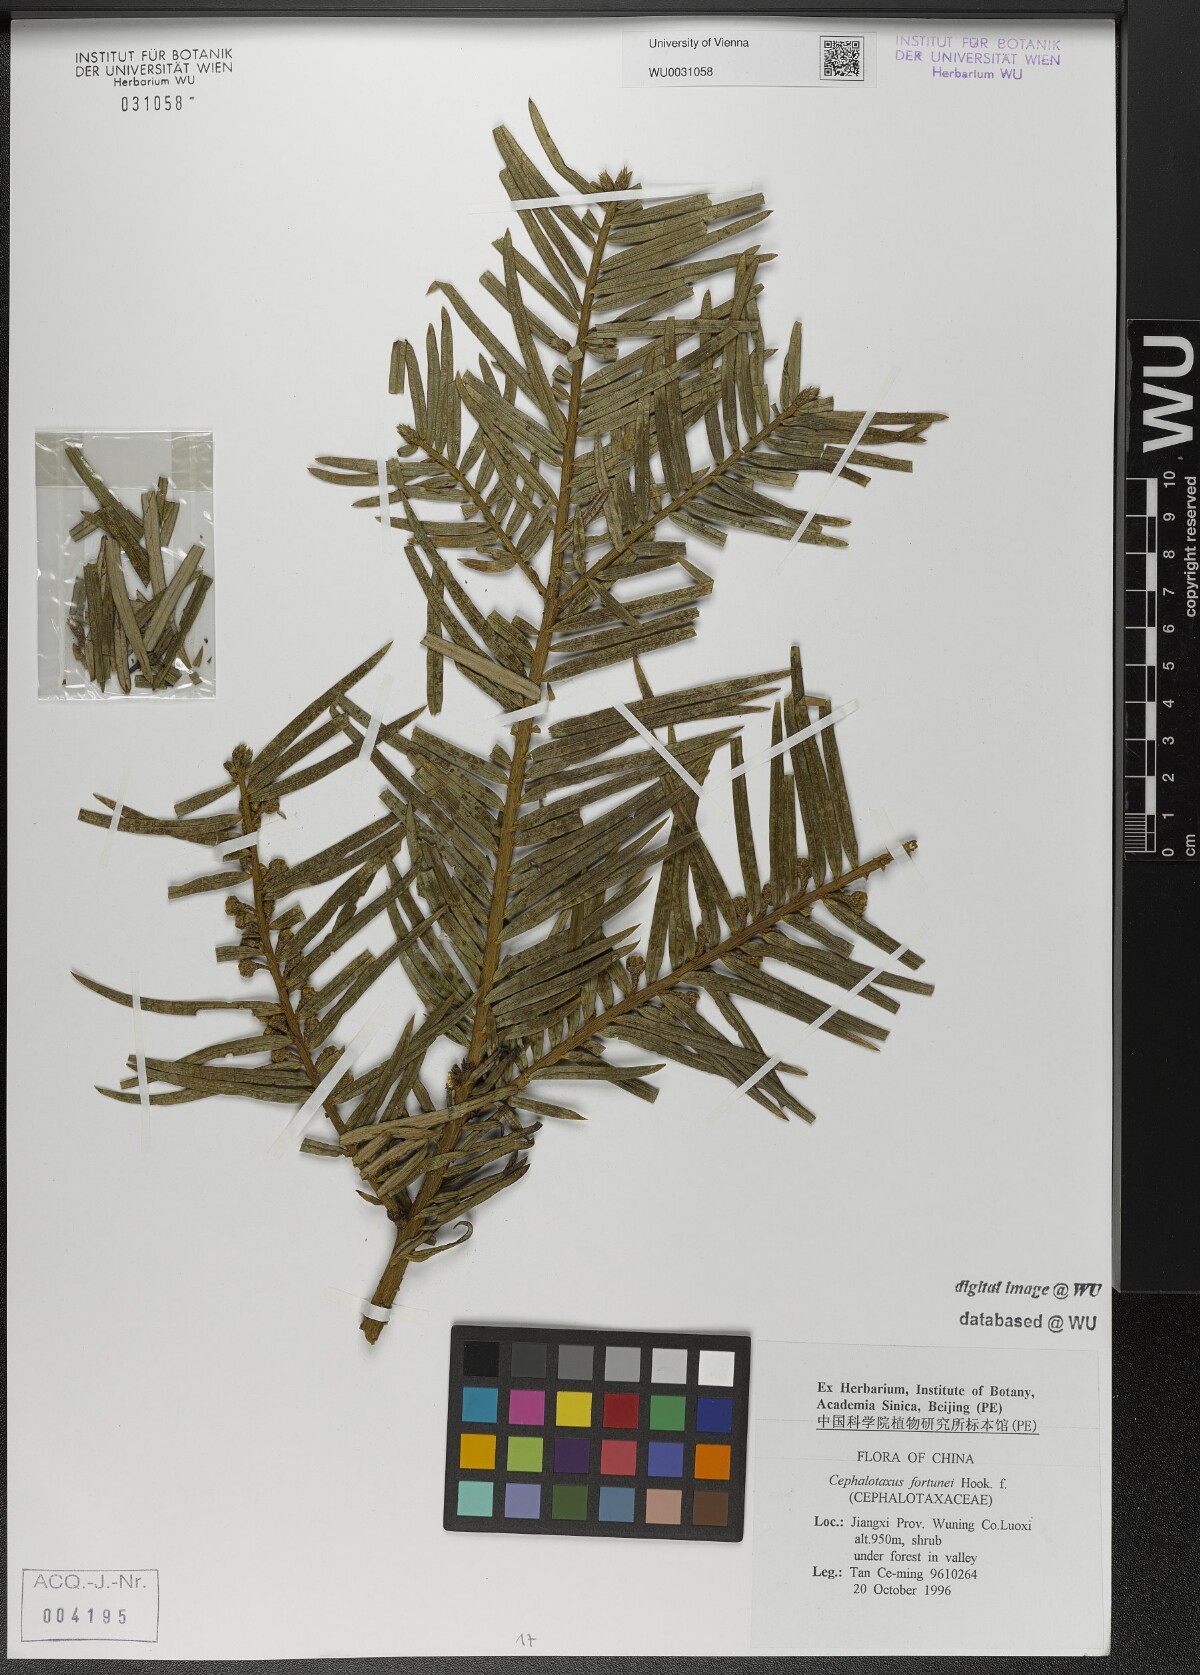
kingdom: Plantae
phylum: Tracheophyta
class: Pinopsida
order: Pinales
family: Cephalotaxaceae
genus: Cephalotaxus
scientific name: Cephalotaxus fortunei
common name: Chinese plum-yew
